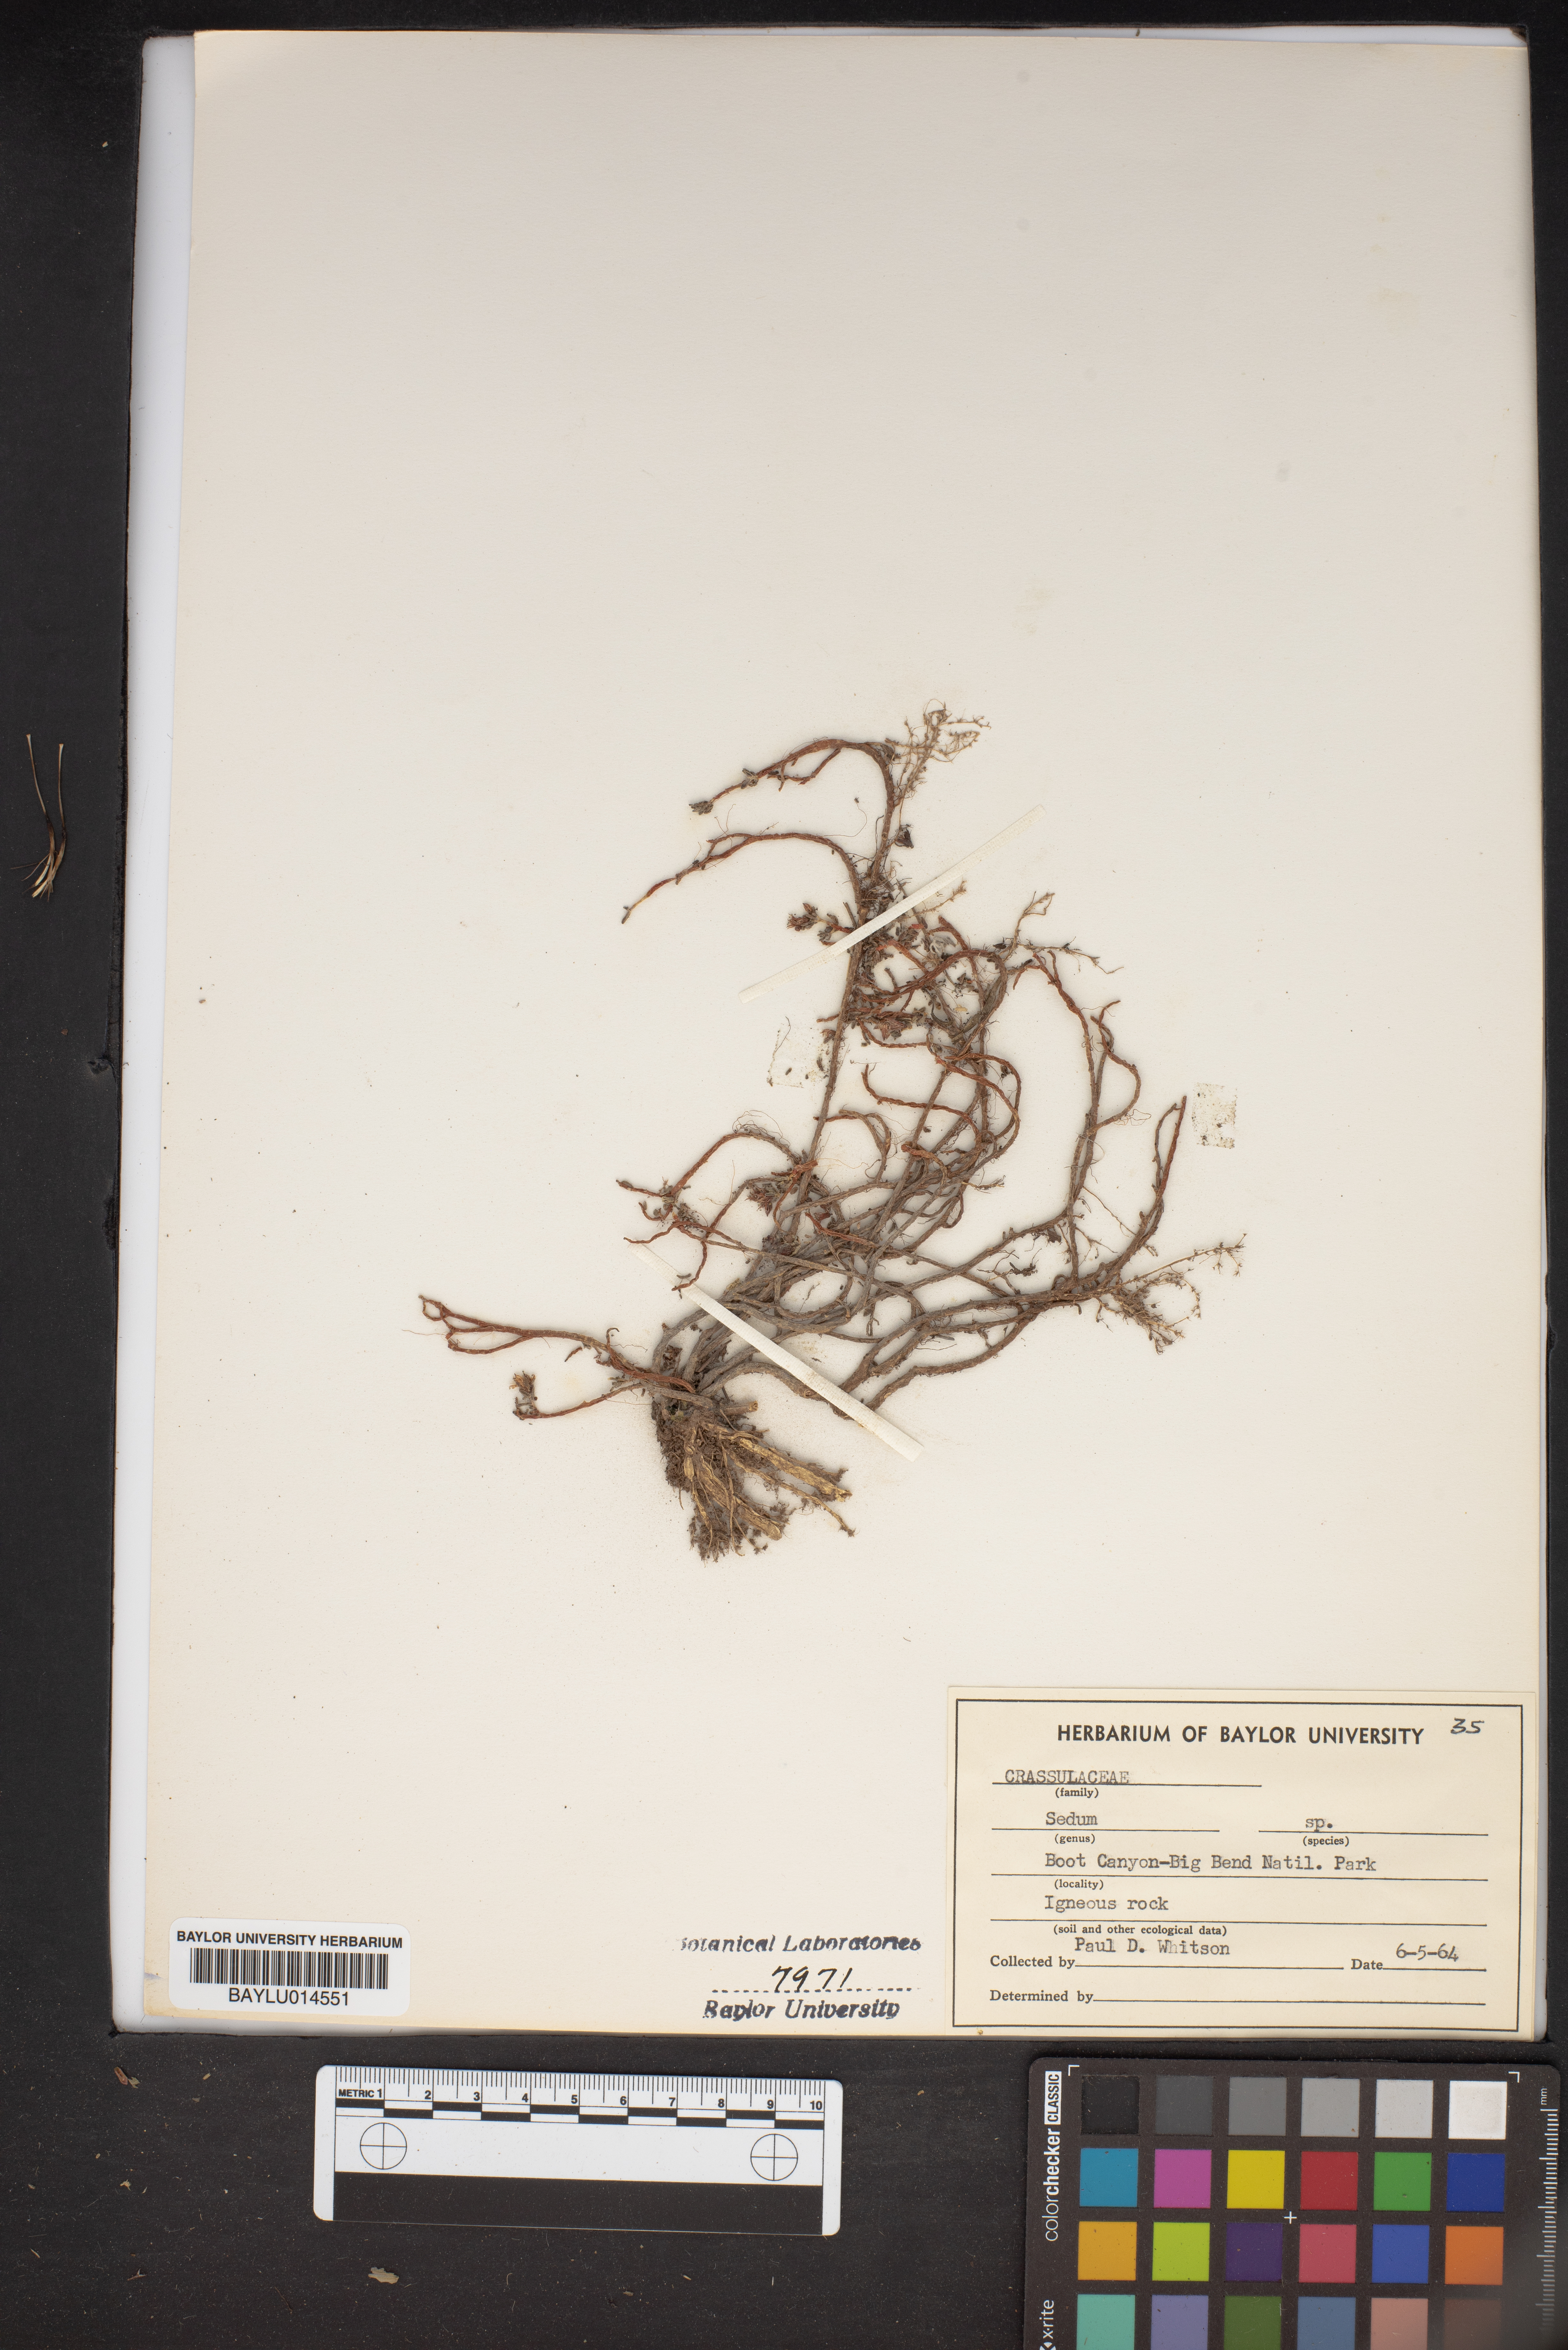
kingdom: Plantae
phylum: Tracheophyta
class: Magnoliopsida
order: Saxifragales
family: Crassulaceae
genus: Sedum
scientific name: Sedum
